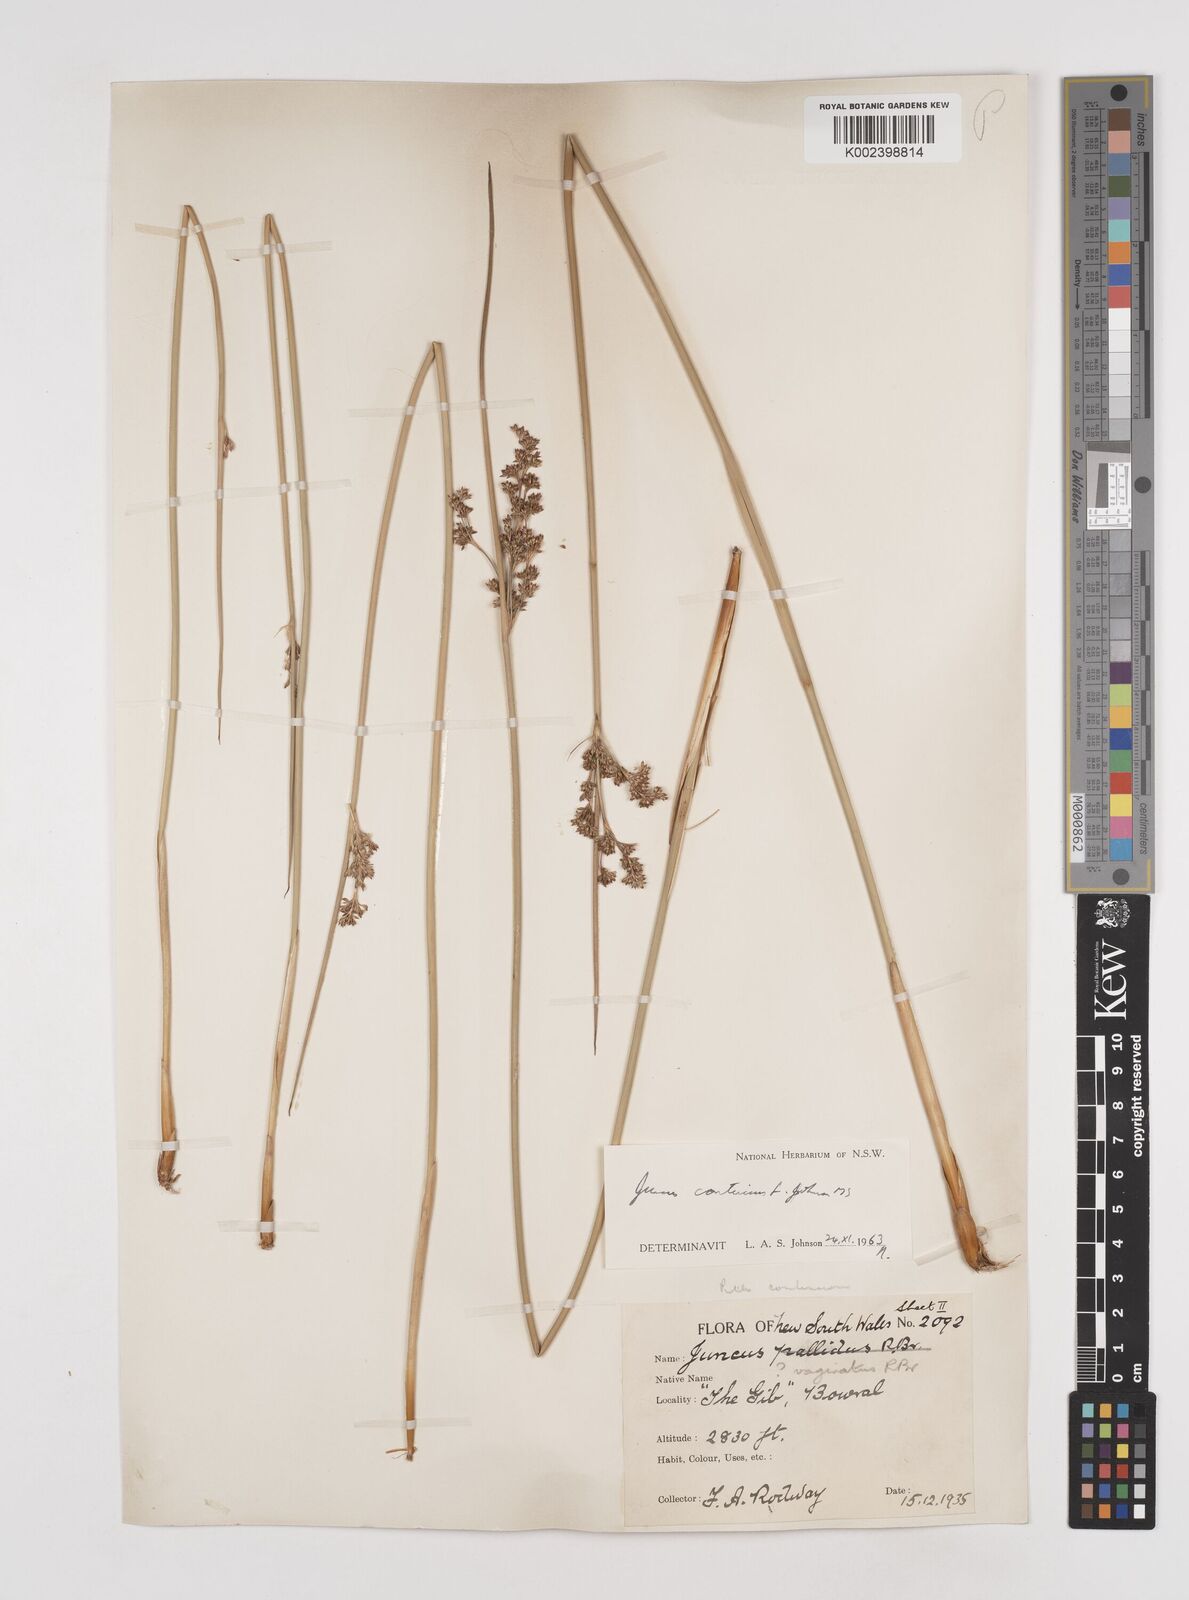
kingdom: Plantae
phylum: Tracheophyta
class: Liliopsida
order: Poales
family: Juncaceae
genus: Juncus
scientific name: Juncus continuus
